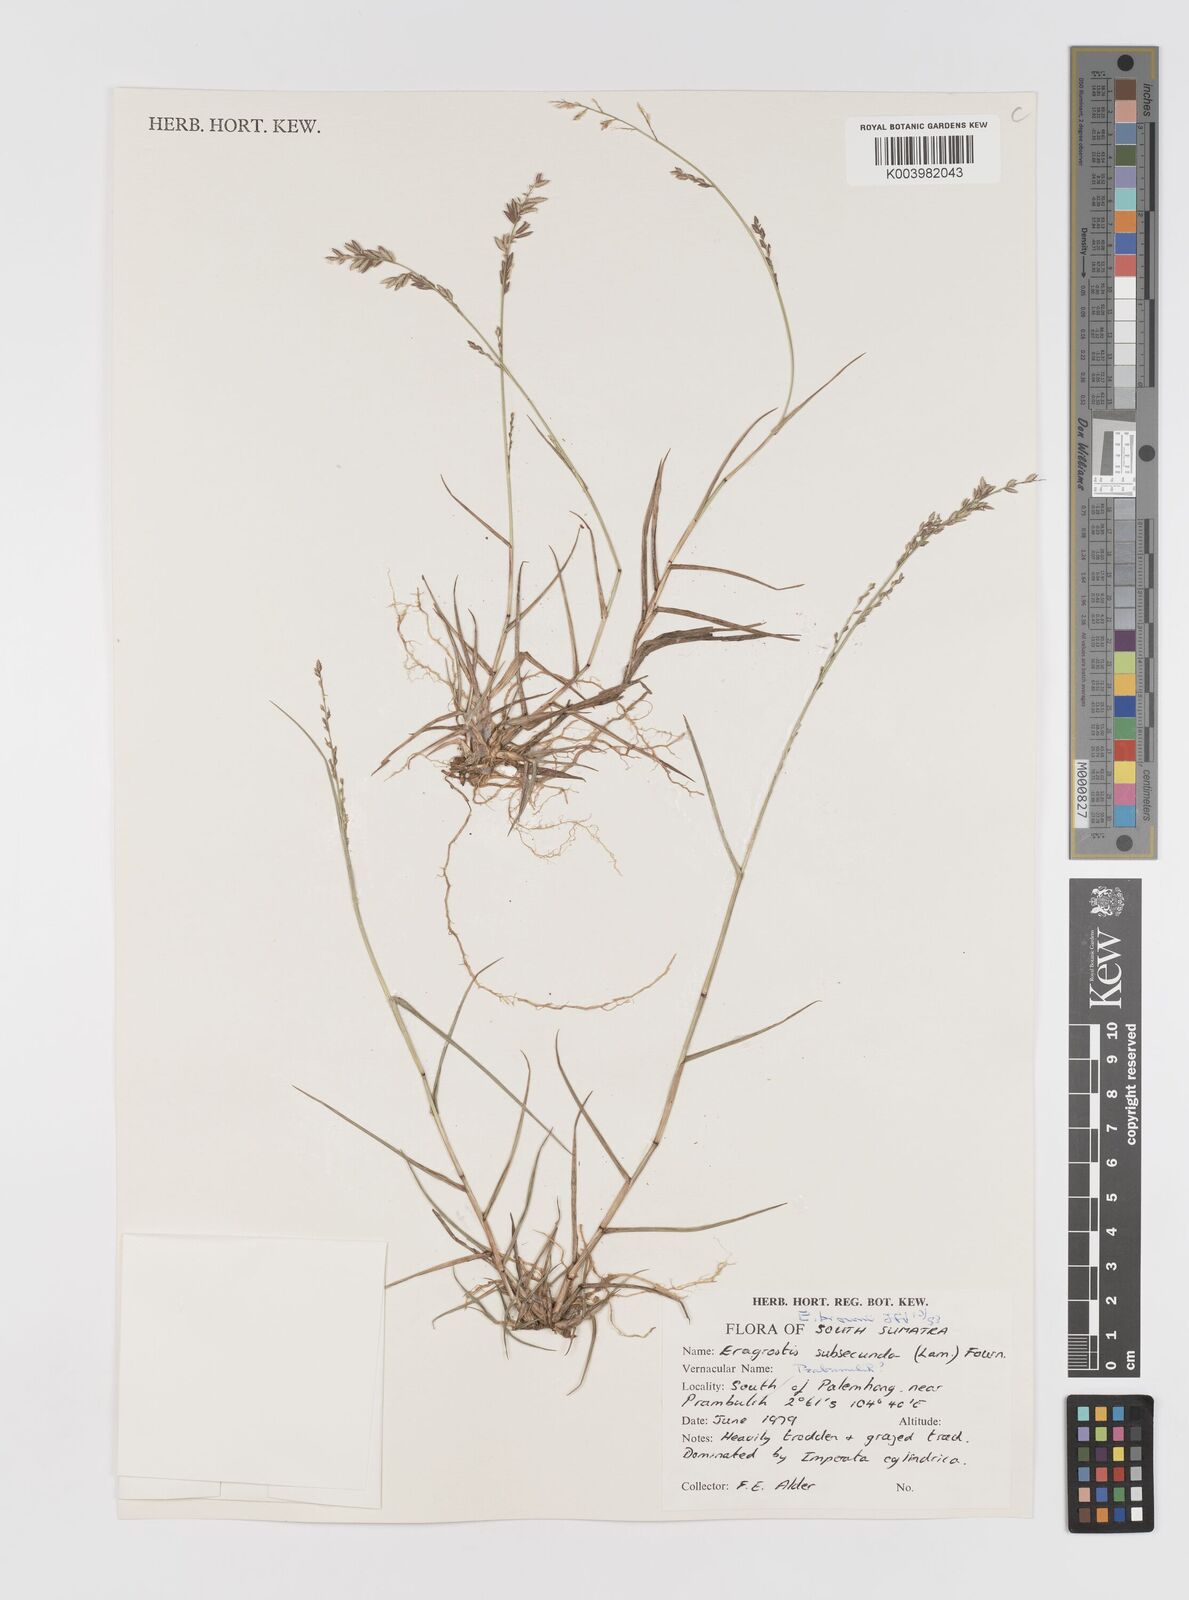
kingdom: Plantae
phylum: Tracheophyta
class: Liliopsida
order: Poales
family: Poaceae
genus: Eragrostis
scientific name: Eragrostis brownii
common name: Lovegrass
